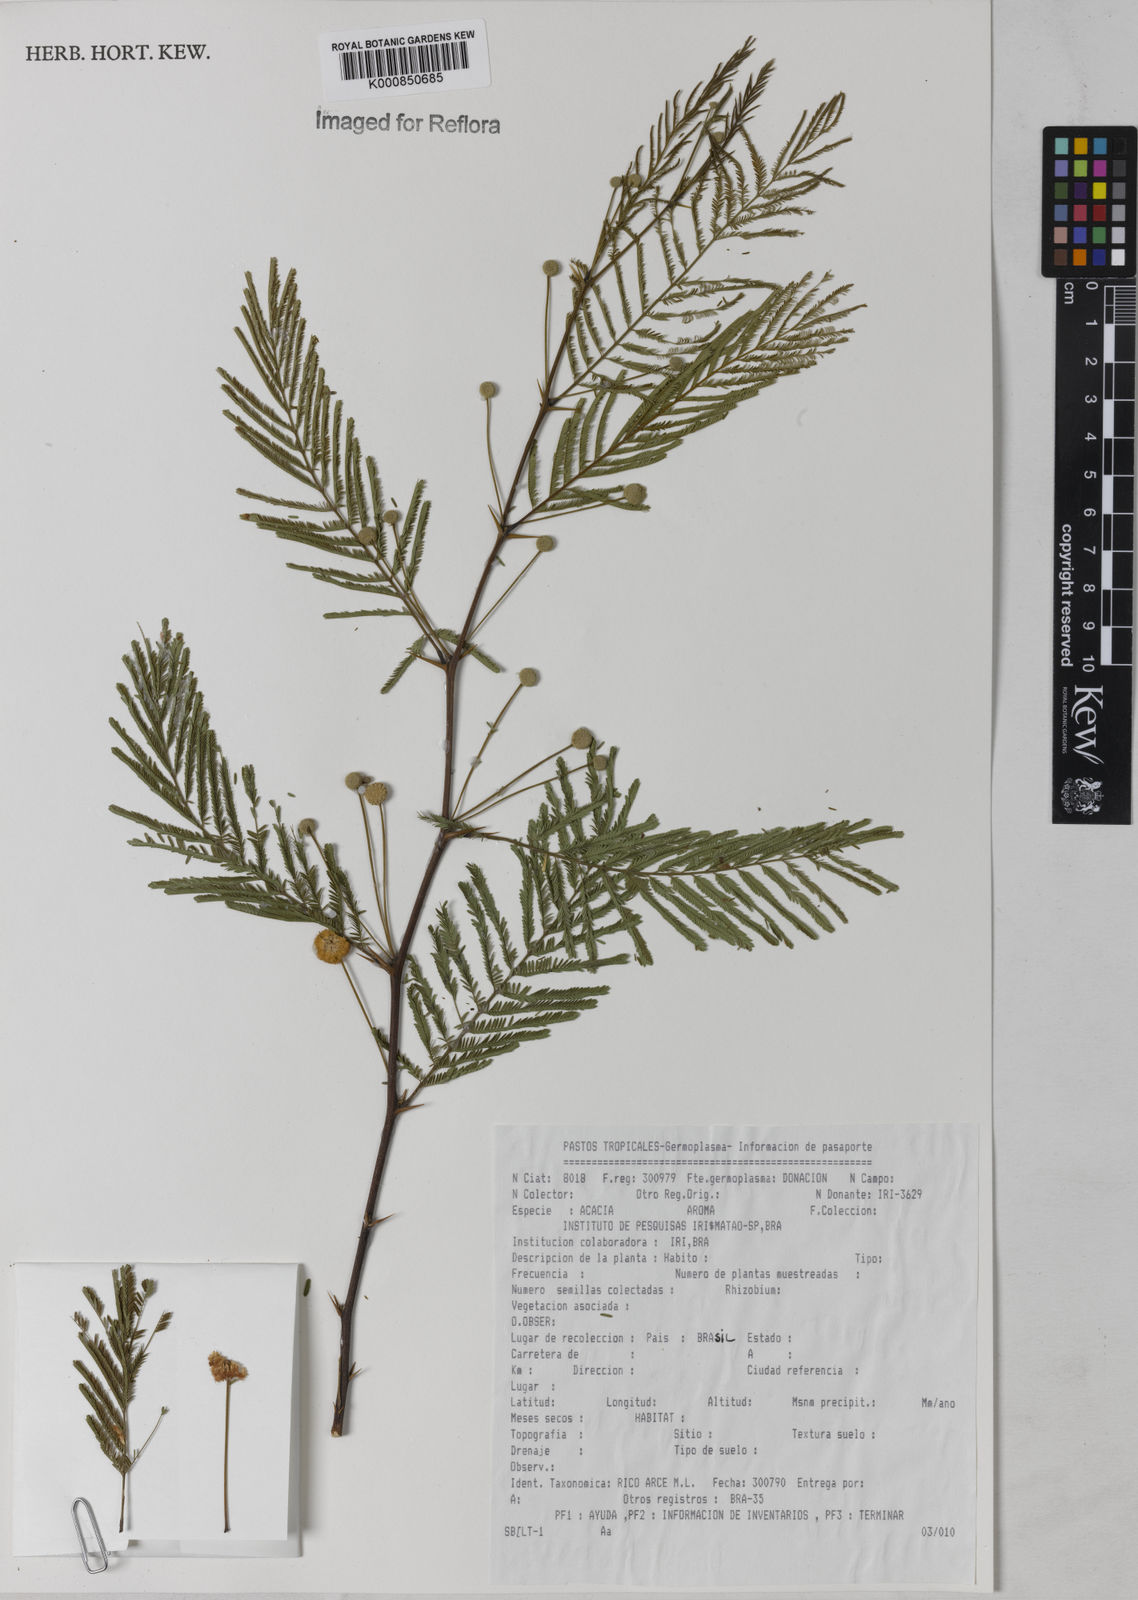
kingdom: Plantae
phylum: Tracheophyta
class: Magnoliopsida
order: Fabales
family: Fabaceae
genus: Acacia
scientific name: Acacia
